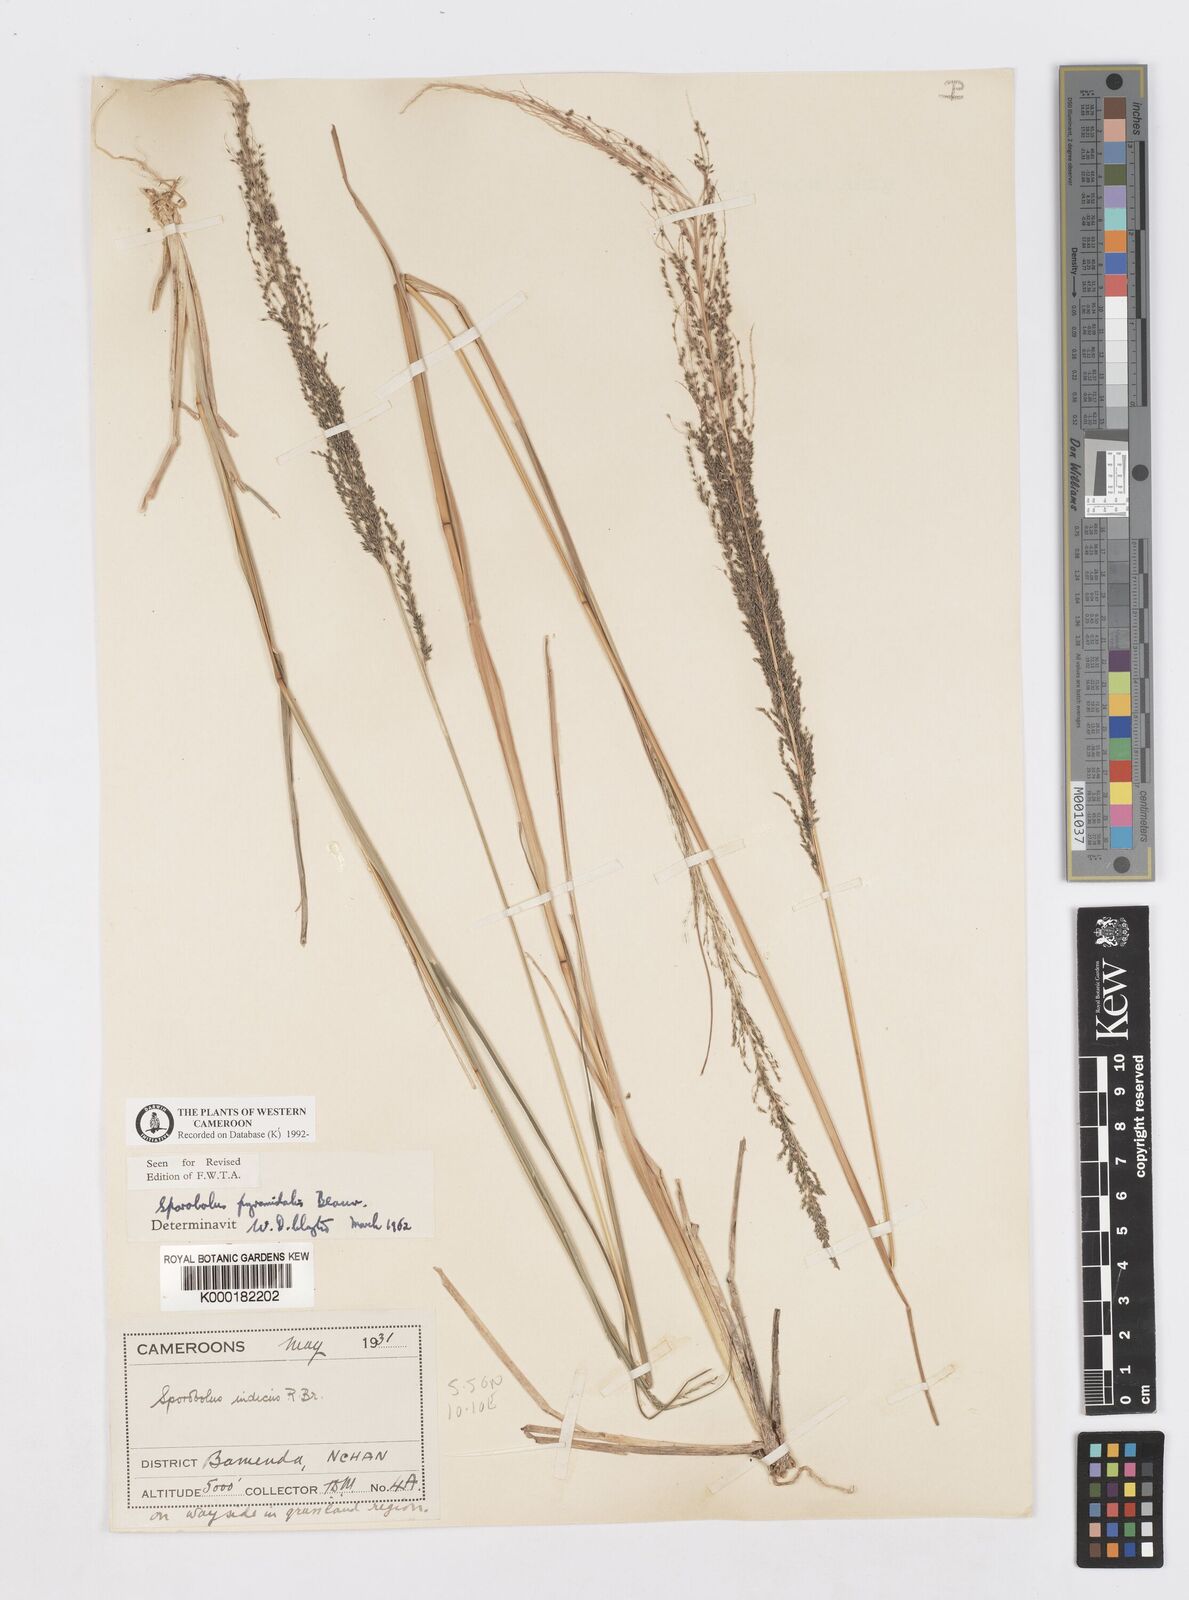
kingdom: Plantae
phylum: Tracheophyta
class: Liliopsida
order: Poales
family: Poaceae
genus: Sporobolus
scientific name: Sporobolus pyramidalis
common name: West indian dropseed
